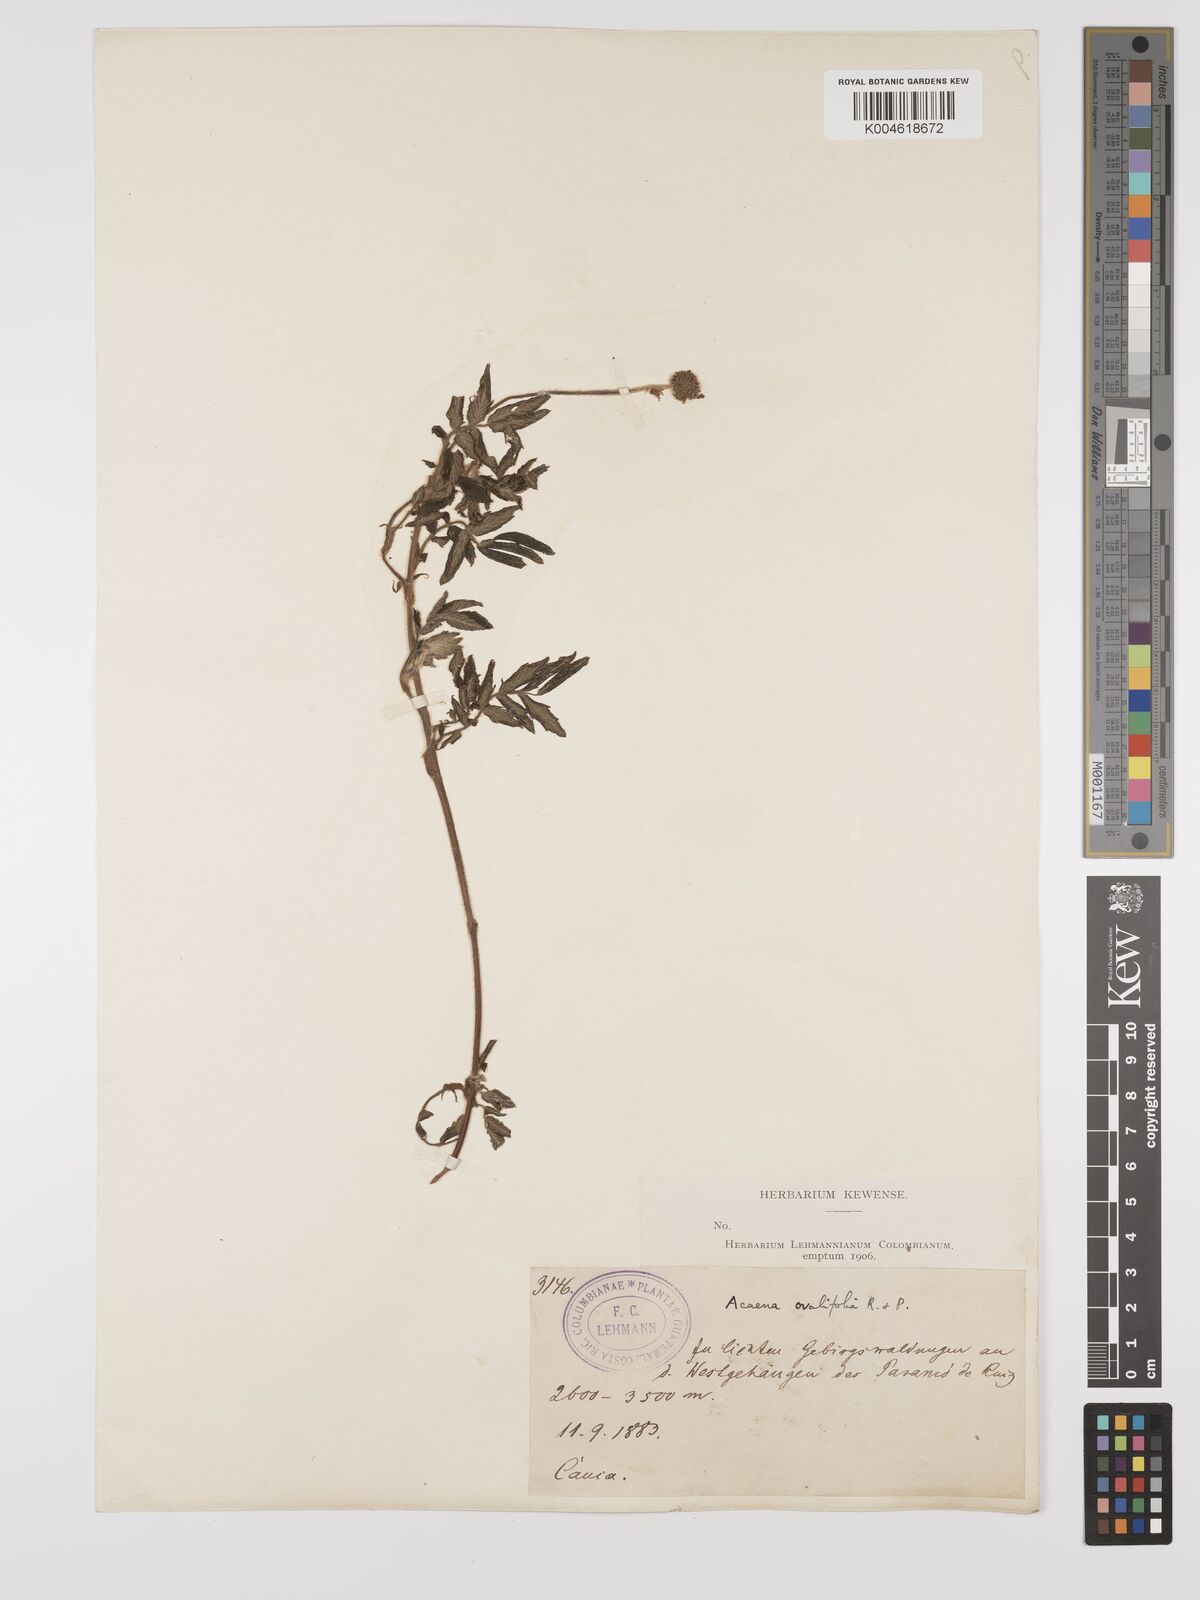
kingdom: Plantae
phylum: Tracheophyta
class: Magnoliopsida
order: Rosales
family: Rosaceae
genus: Acaena
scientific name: Acaena ovalifolia
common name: Two-spined acaena
